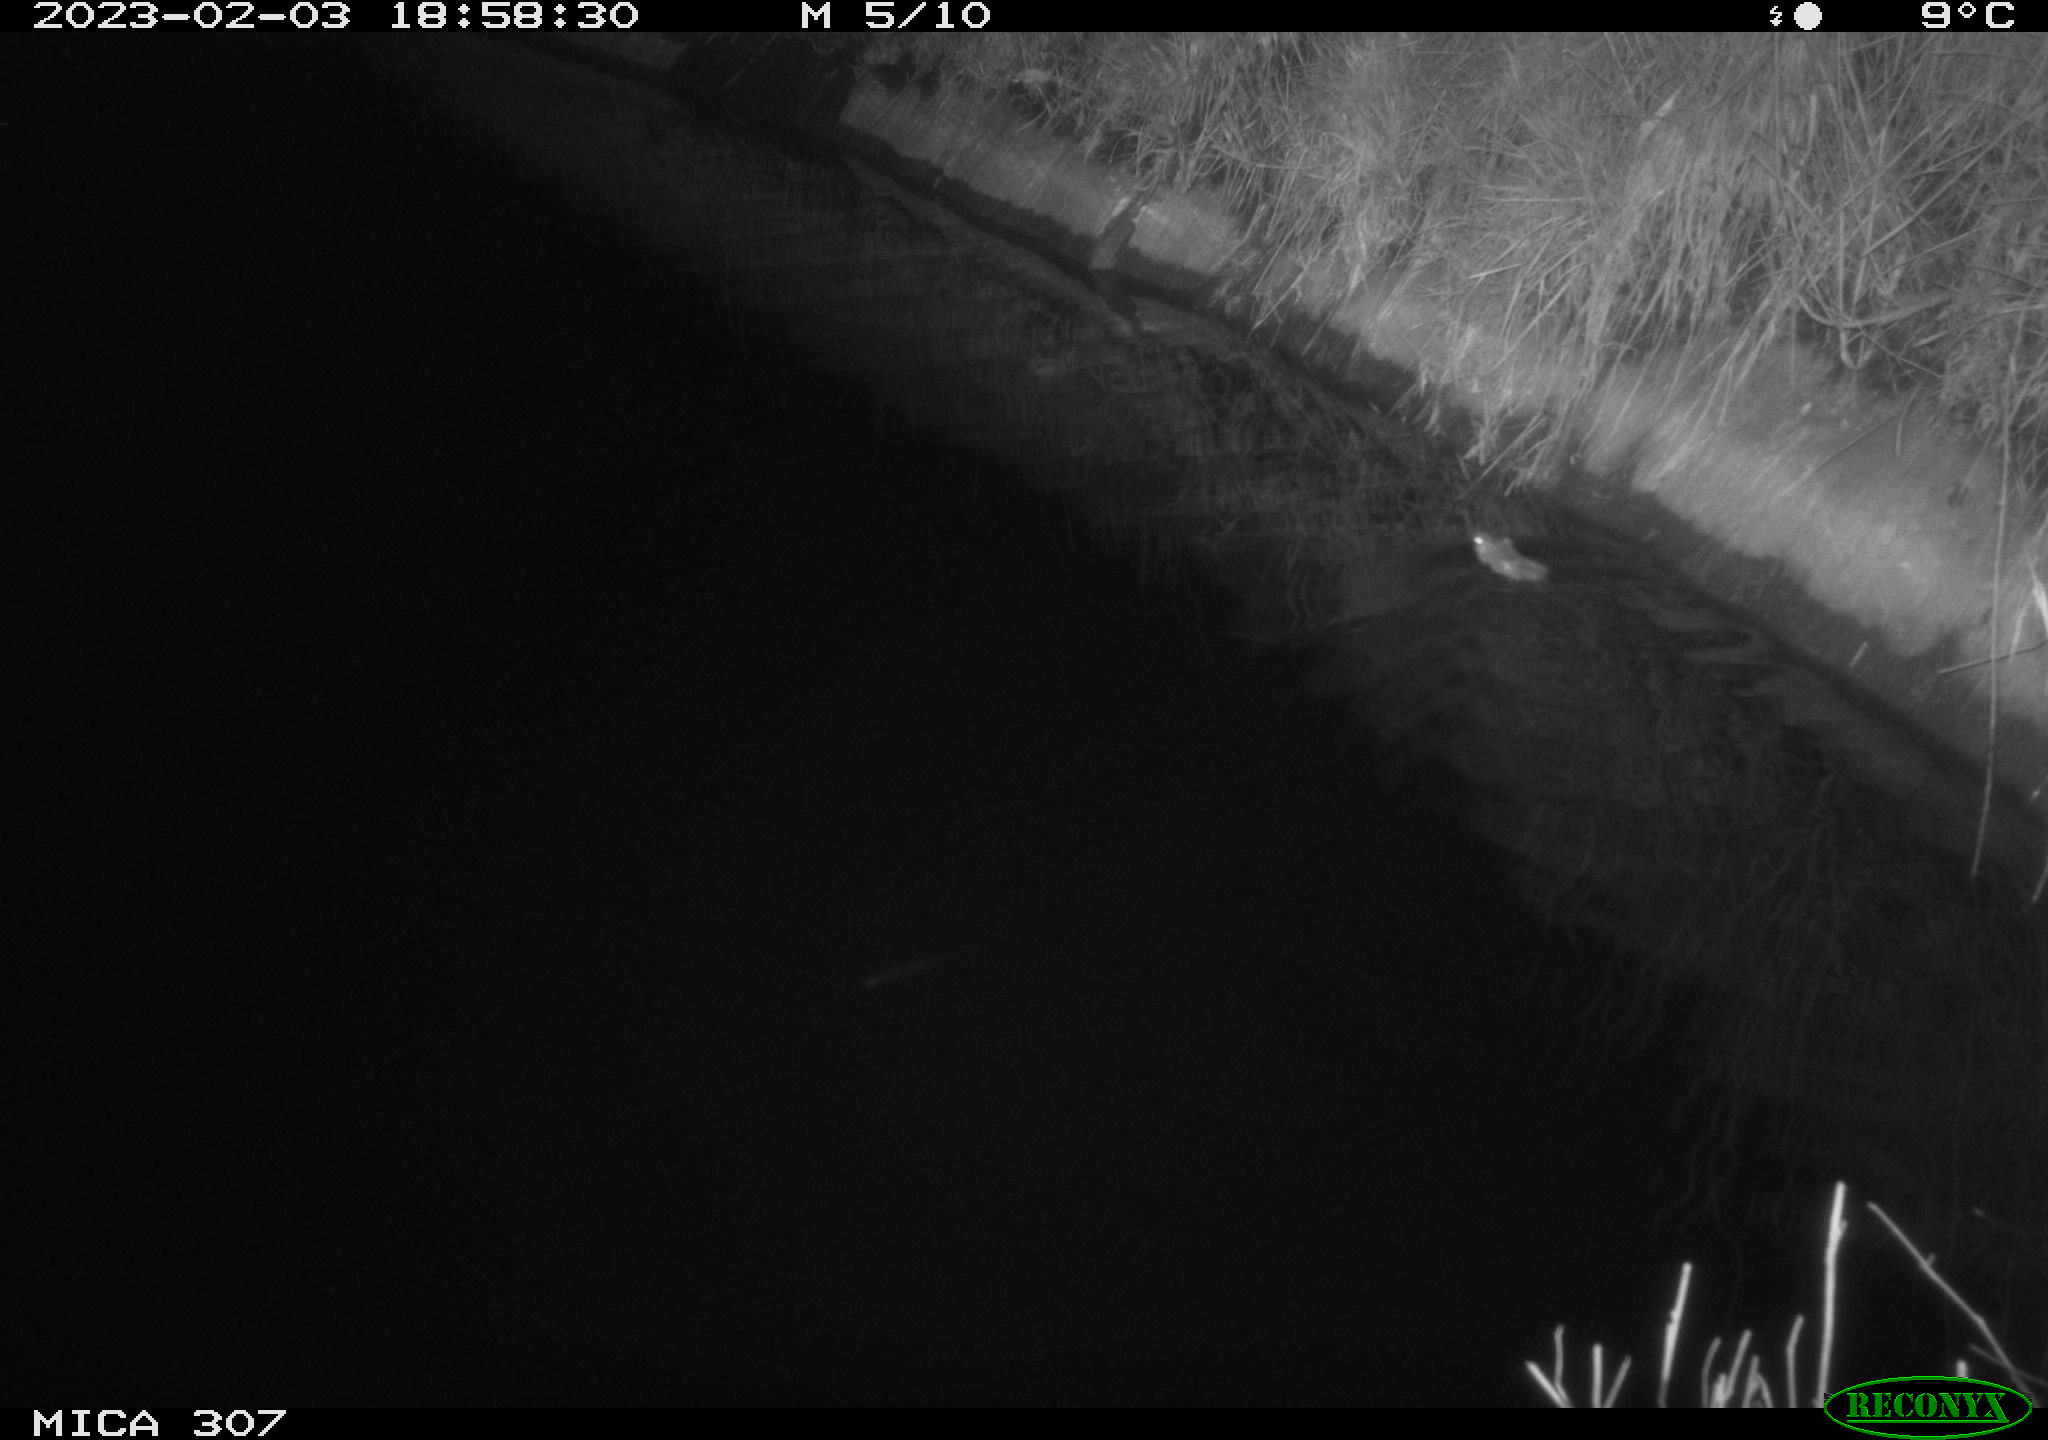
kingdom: Animalia
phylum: Chordata
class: Mammalia
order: Rodentia
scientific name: Rodentia
